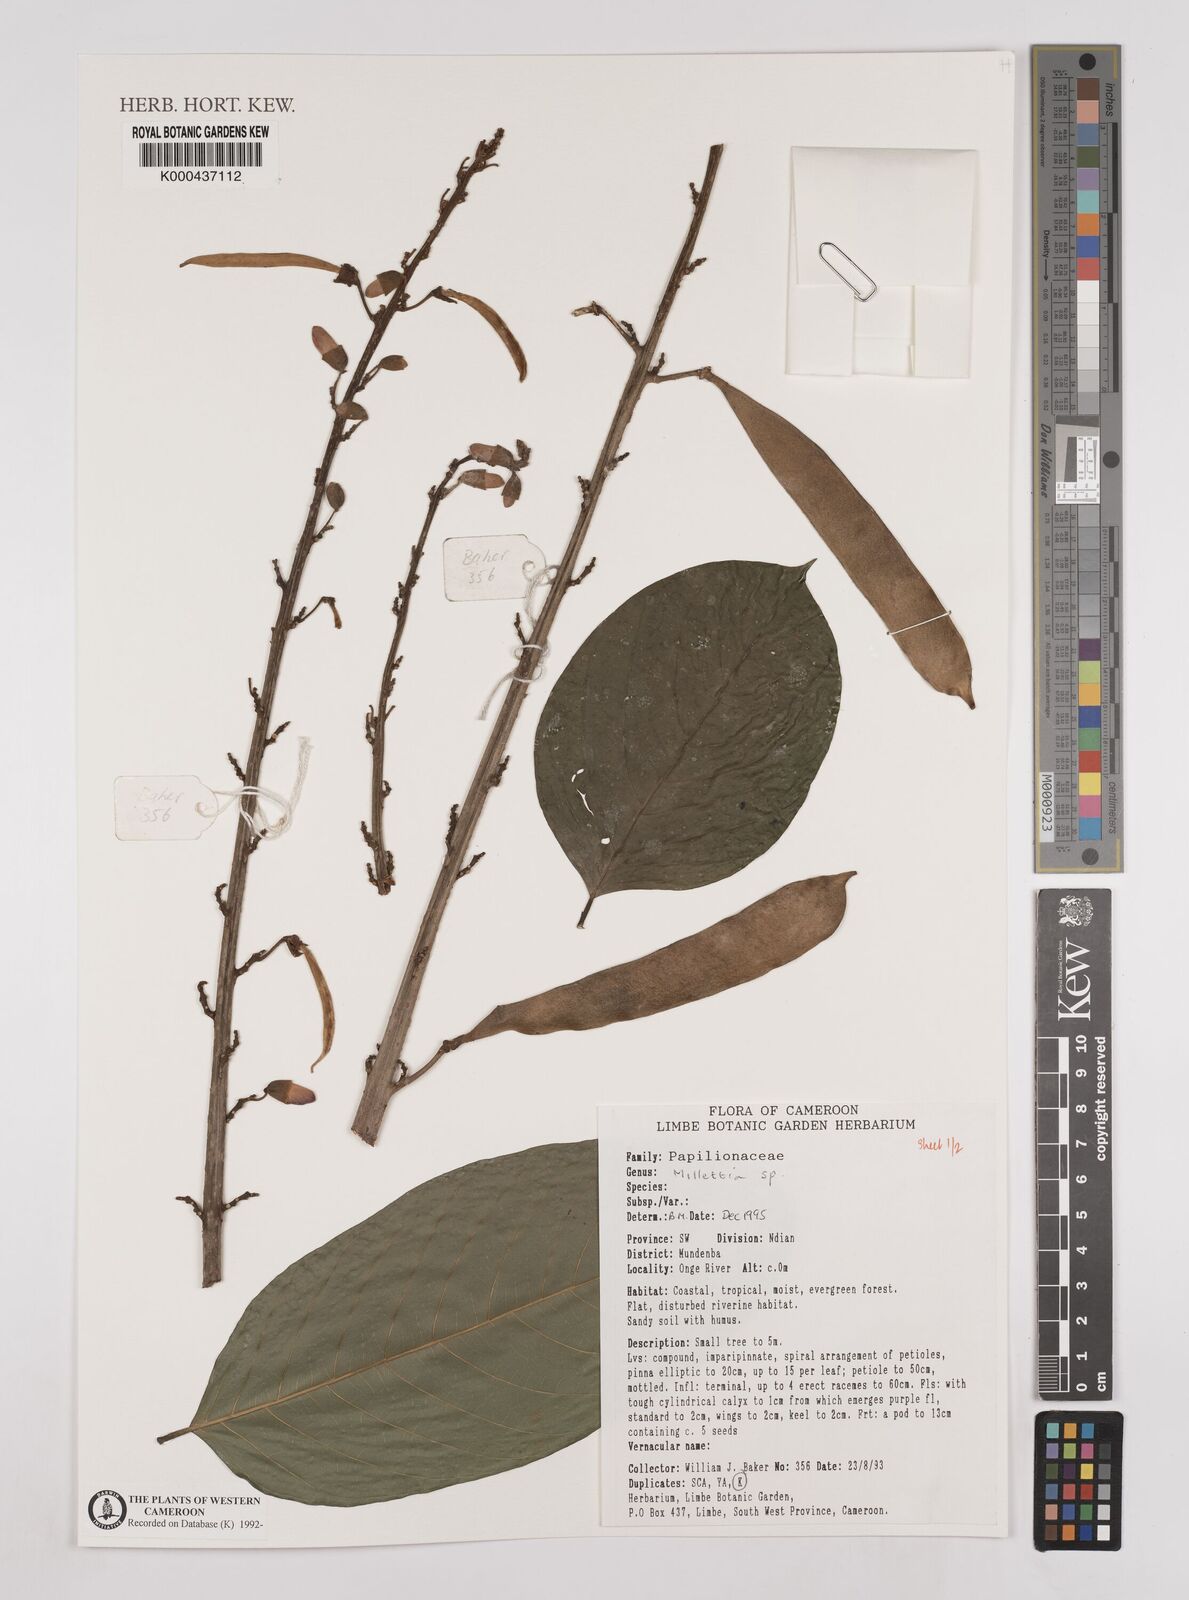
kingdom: Plantae
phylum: Tracheophyta
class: Magnoliopsida
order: Fabales
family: Fabaceae
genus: Millettia
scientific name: Millettia
